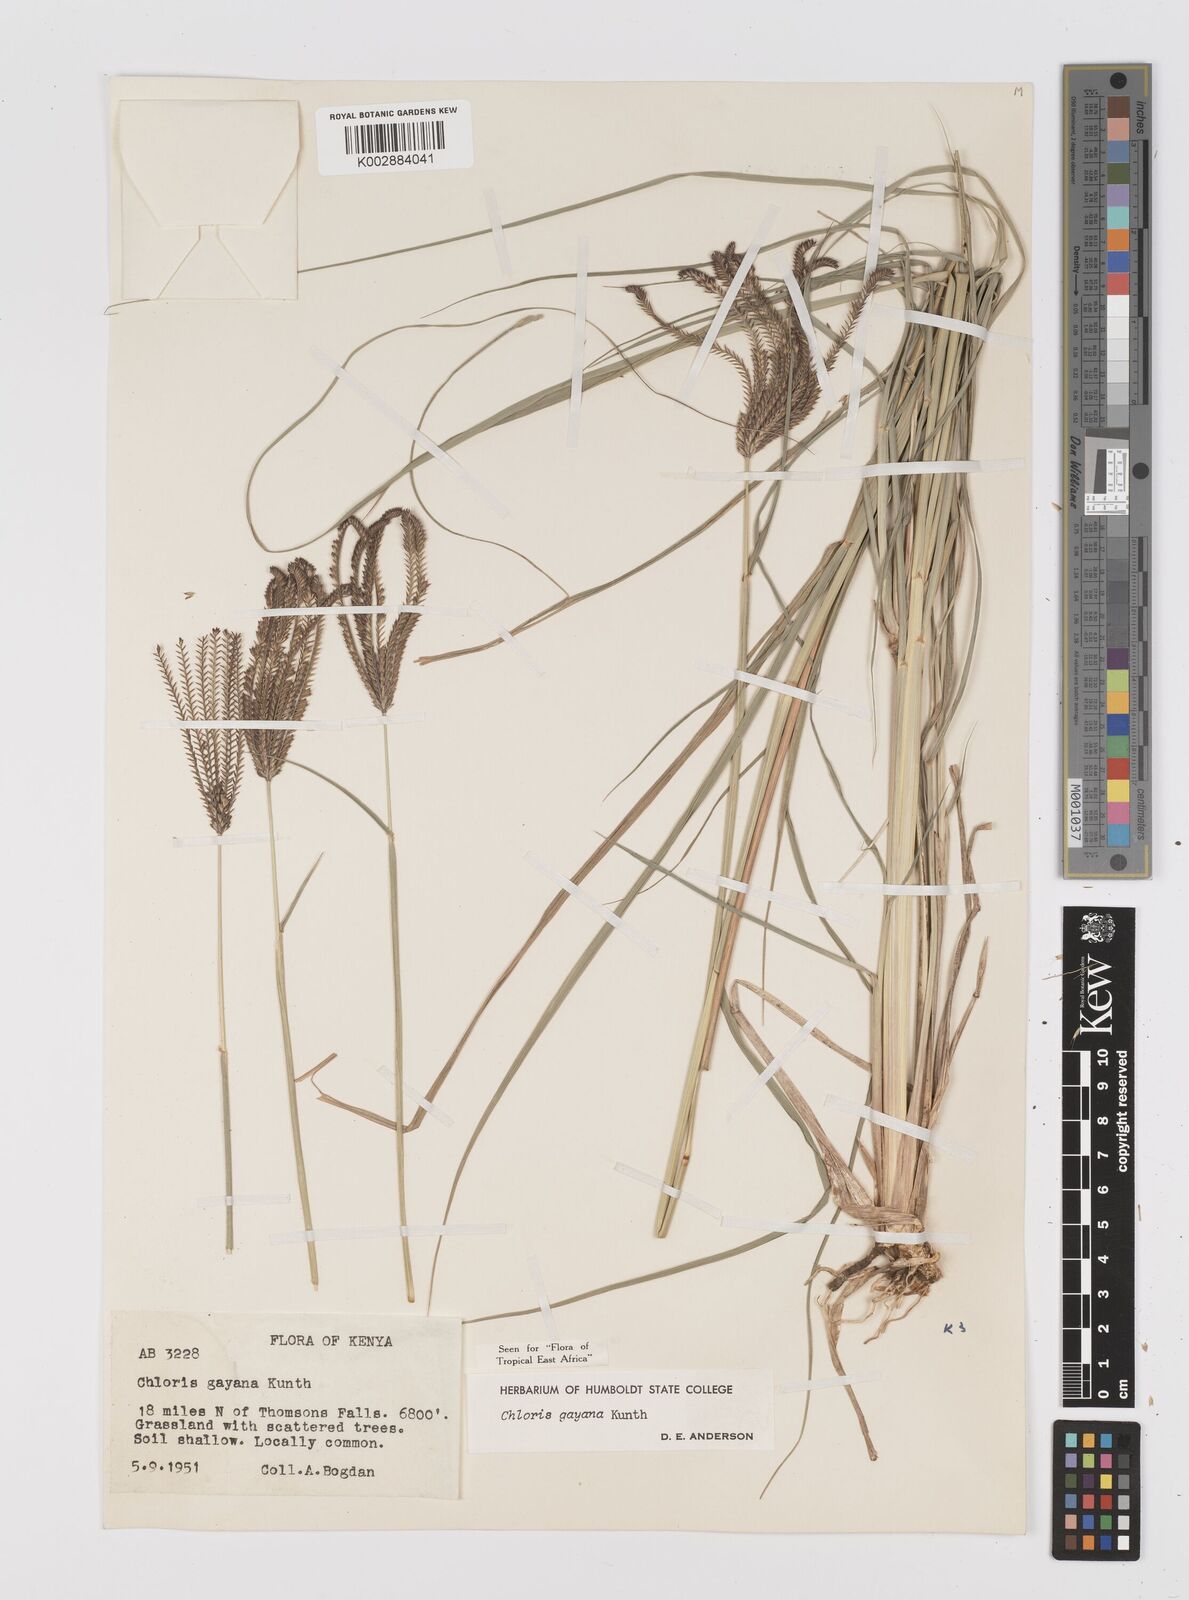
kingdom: Plantae
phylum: Tracheophyta
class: Liliopsida
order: Poales
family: Poaceae
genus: Chloris
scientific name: Chloris gayana
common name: Rhodes grass
